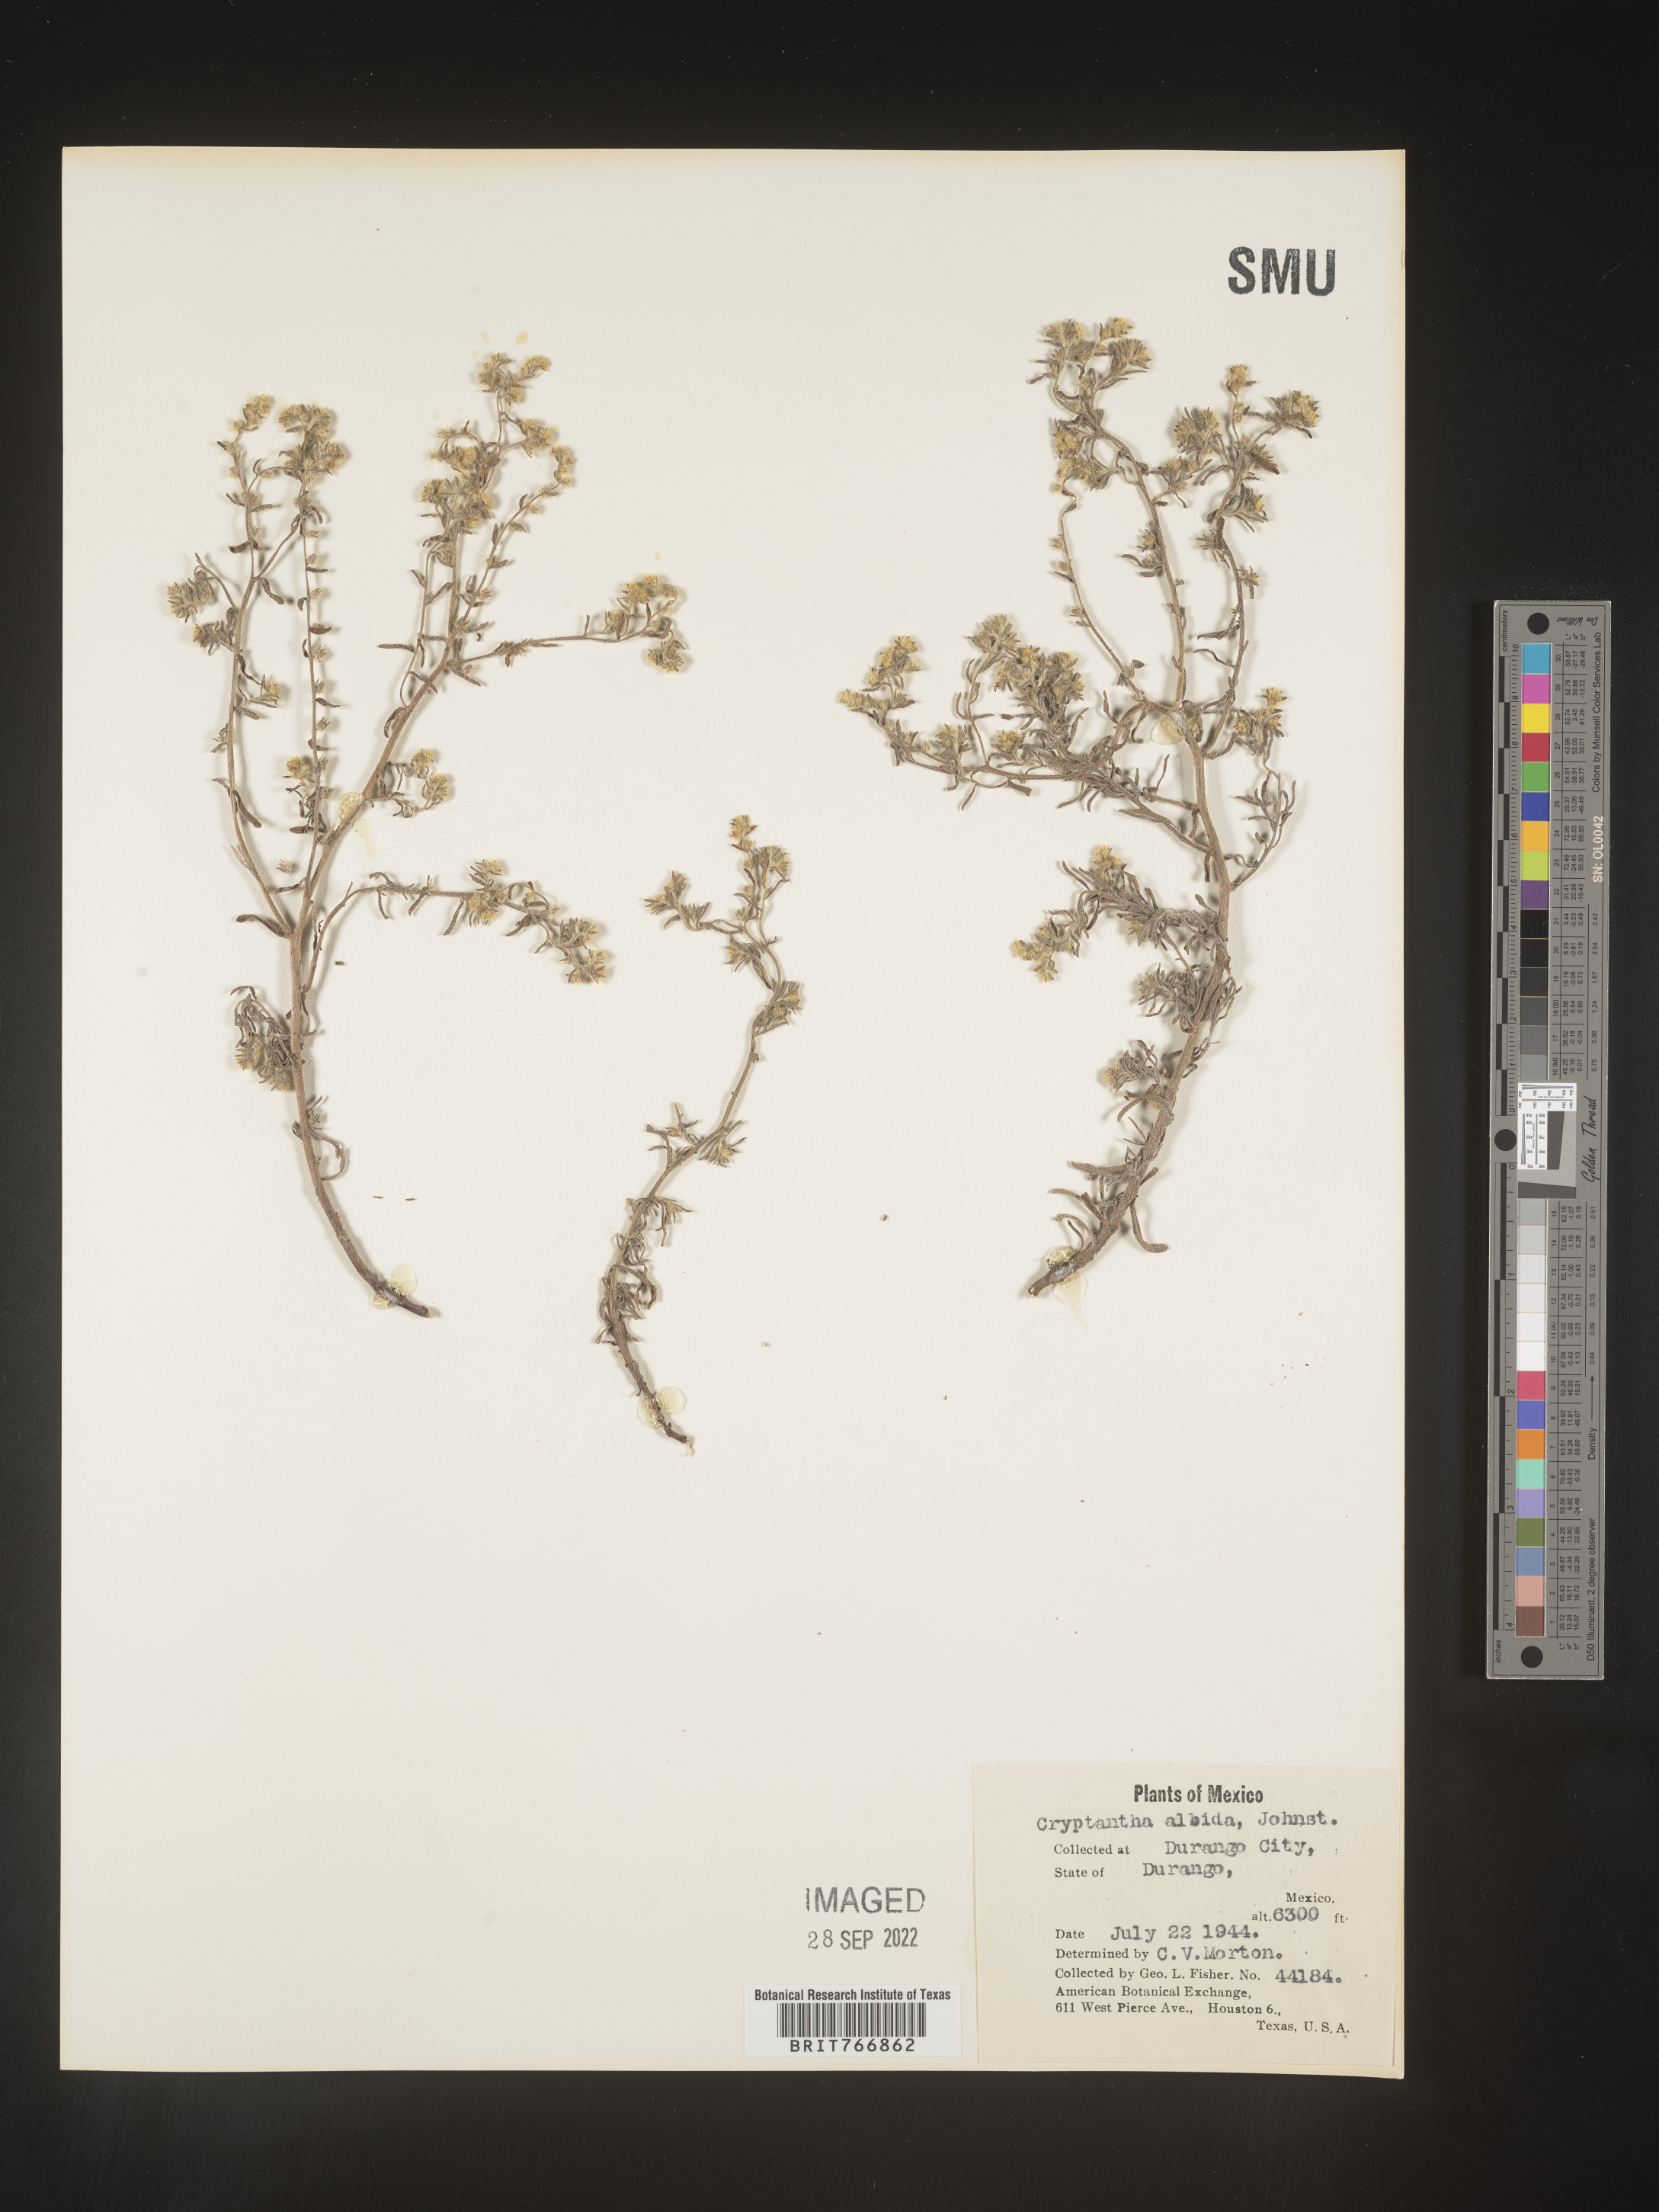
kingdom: Plantae
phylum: Tracheophyta
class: Magnoliopsida
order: Boraginales
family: Boraginaceae
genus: Cryptantha
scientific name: Cryptantha
